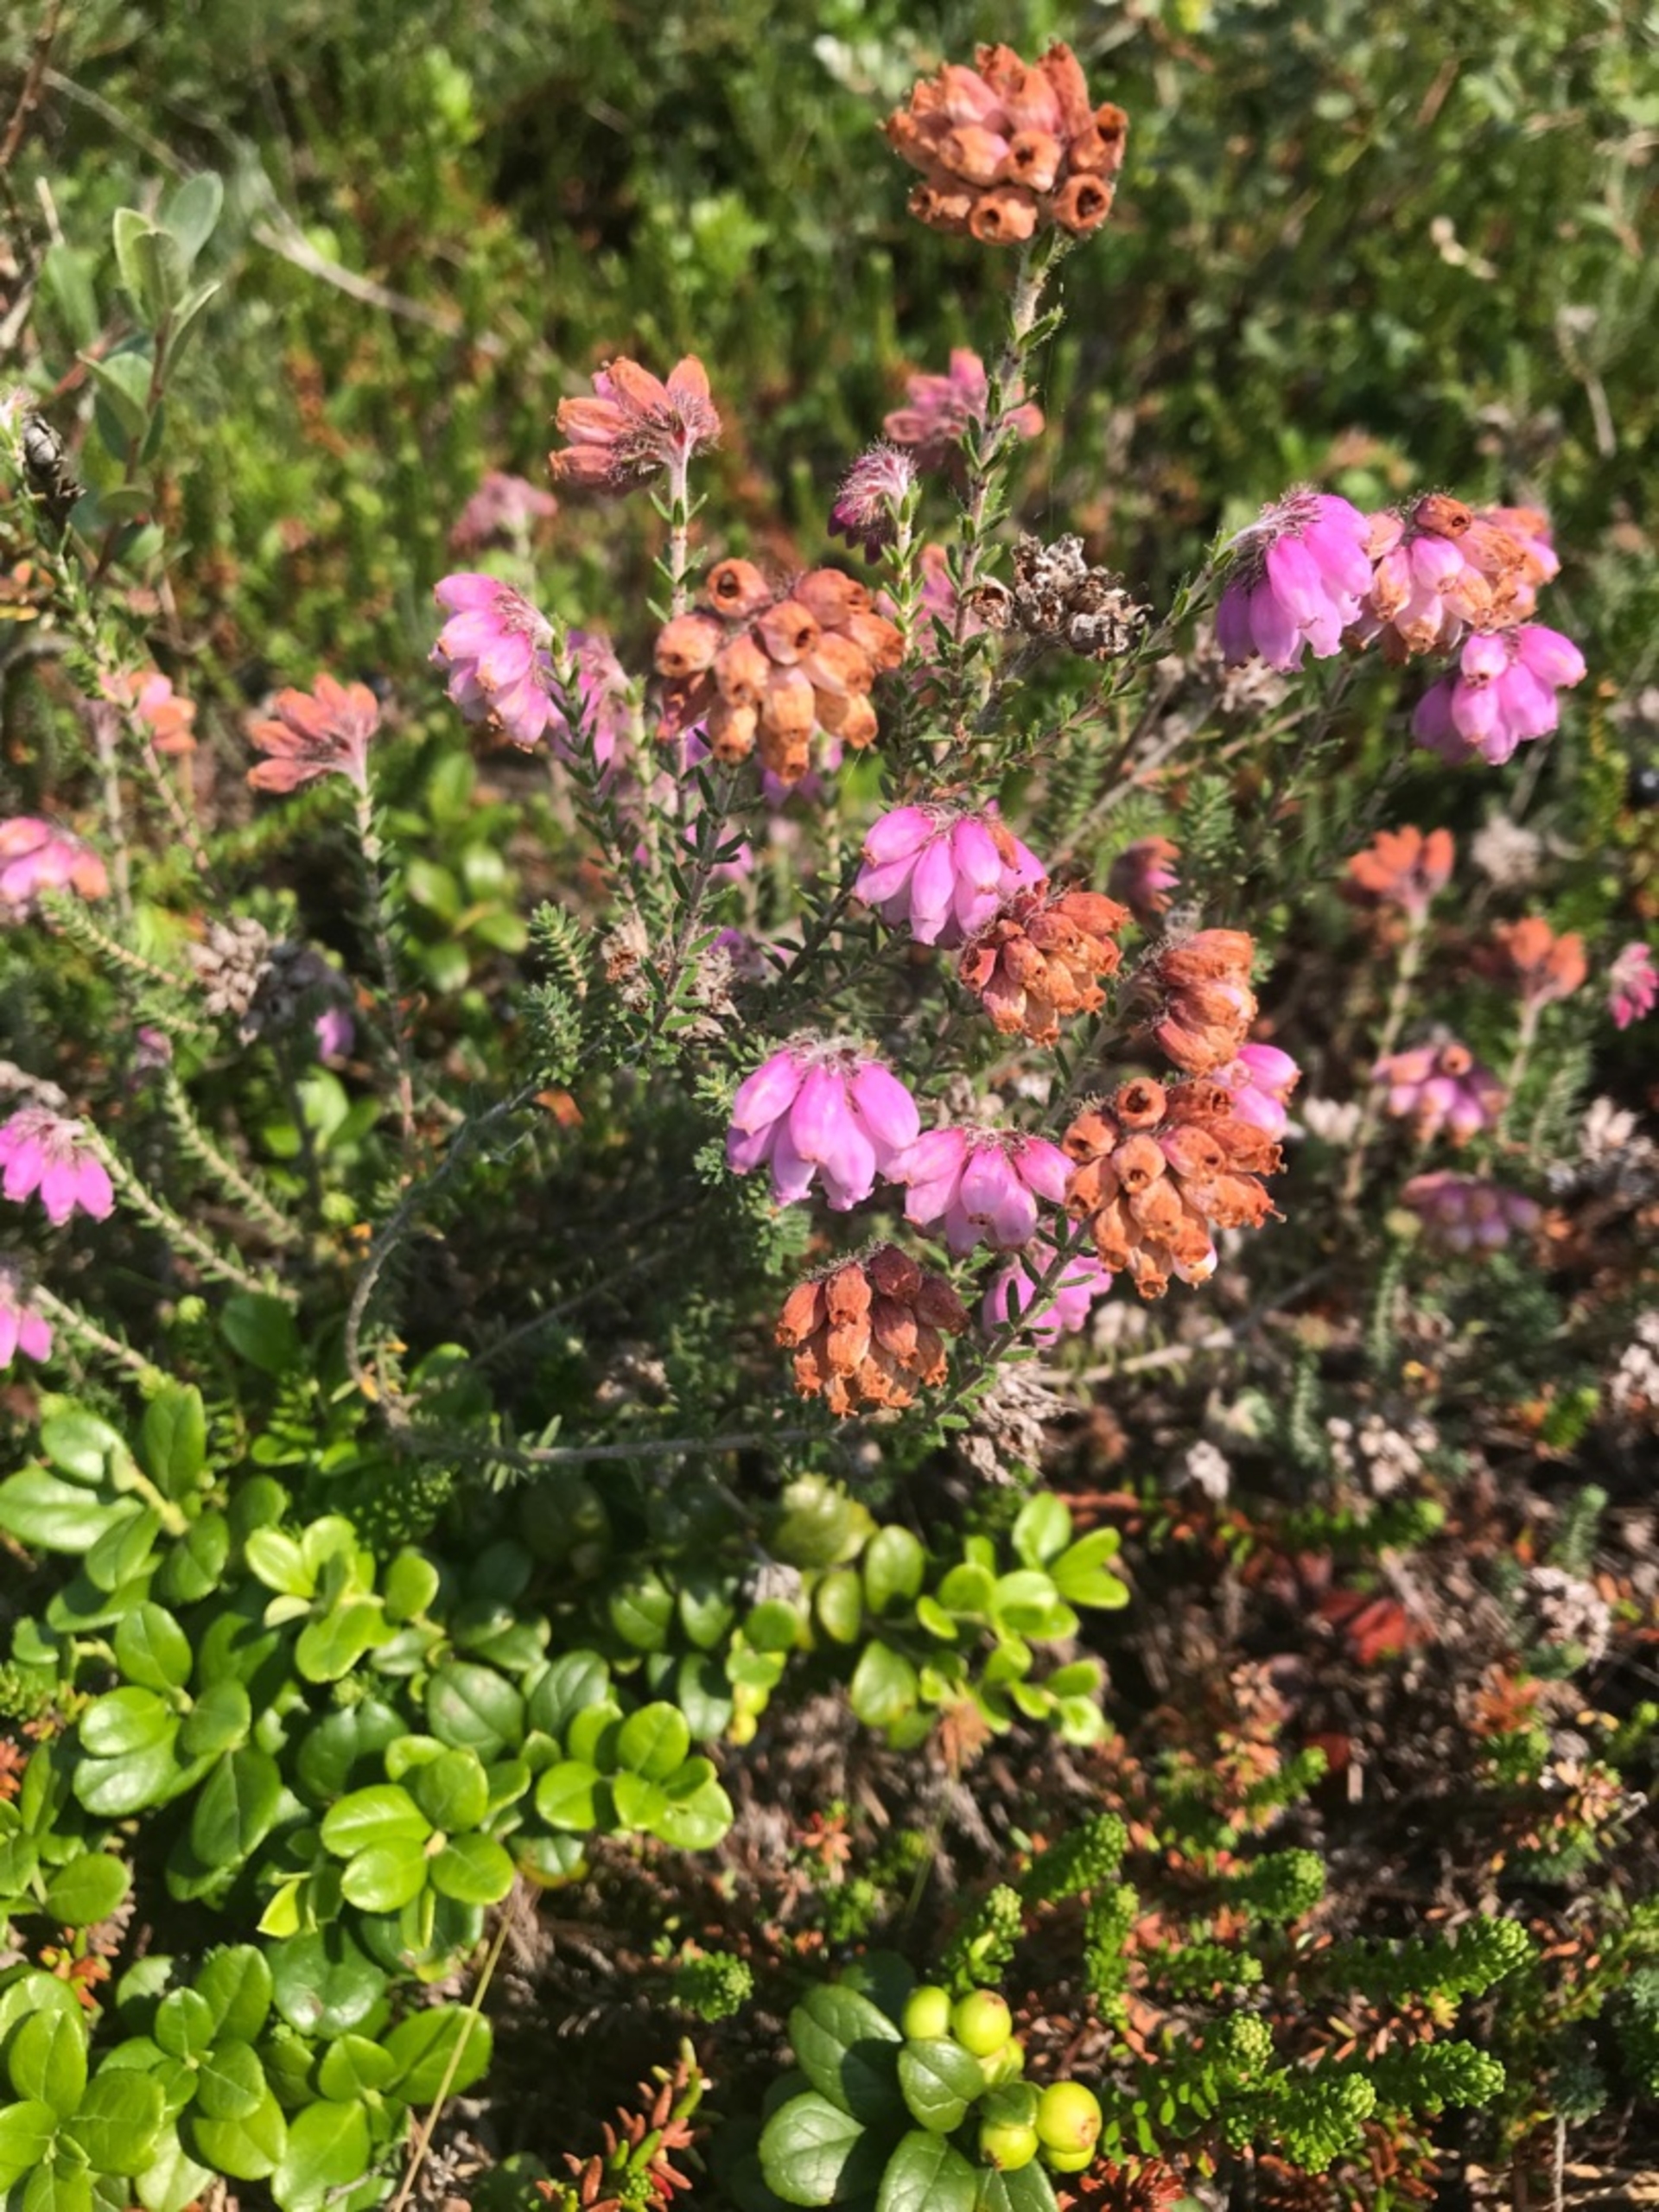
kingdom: Plantae
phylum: Tracheophyta
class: Magnoliopsida
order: Ericales
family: Ericaceae
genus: Erica
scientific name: Erica tetralix
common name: Klokkelyng
